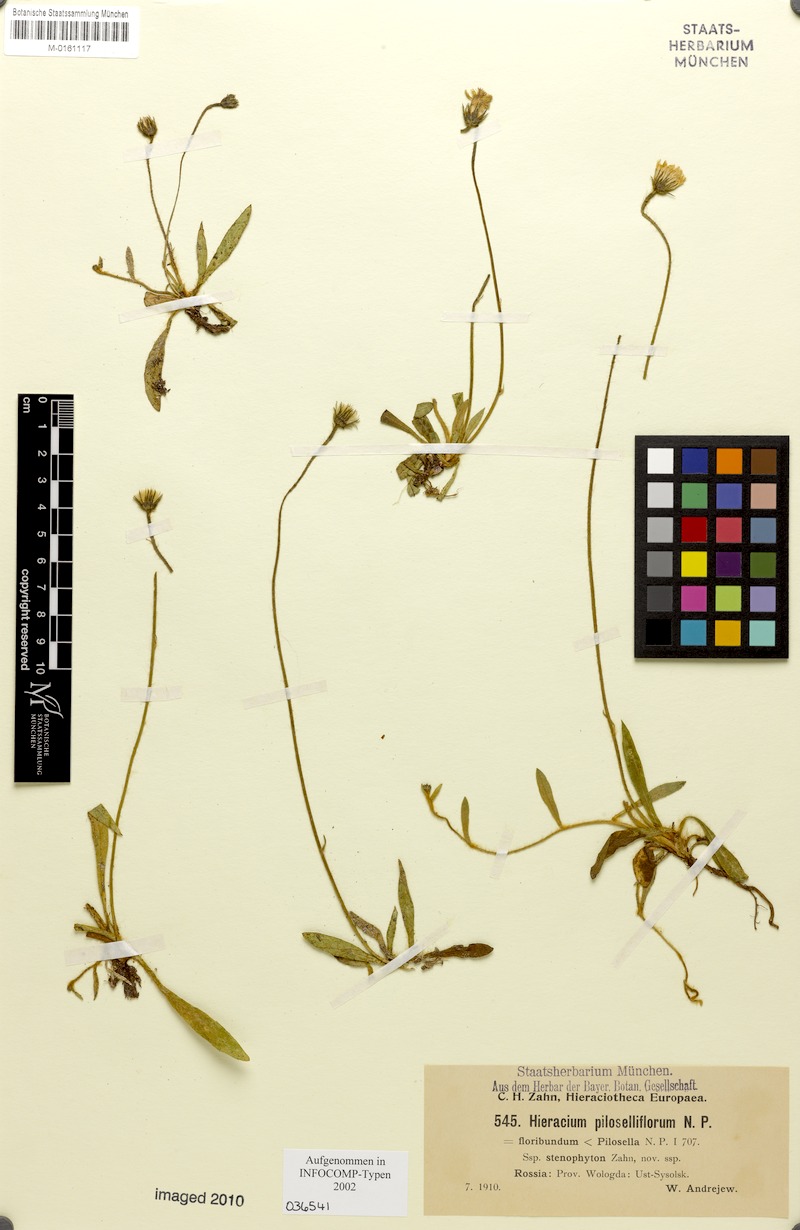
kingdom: Plantae
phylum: Tracheophyta
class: Magnoliopsida
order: Asterales
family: Asteraceae
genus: Pilosella
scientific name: Pilosella piloselliflora
